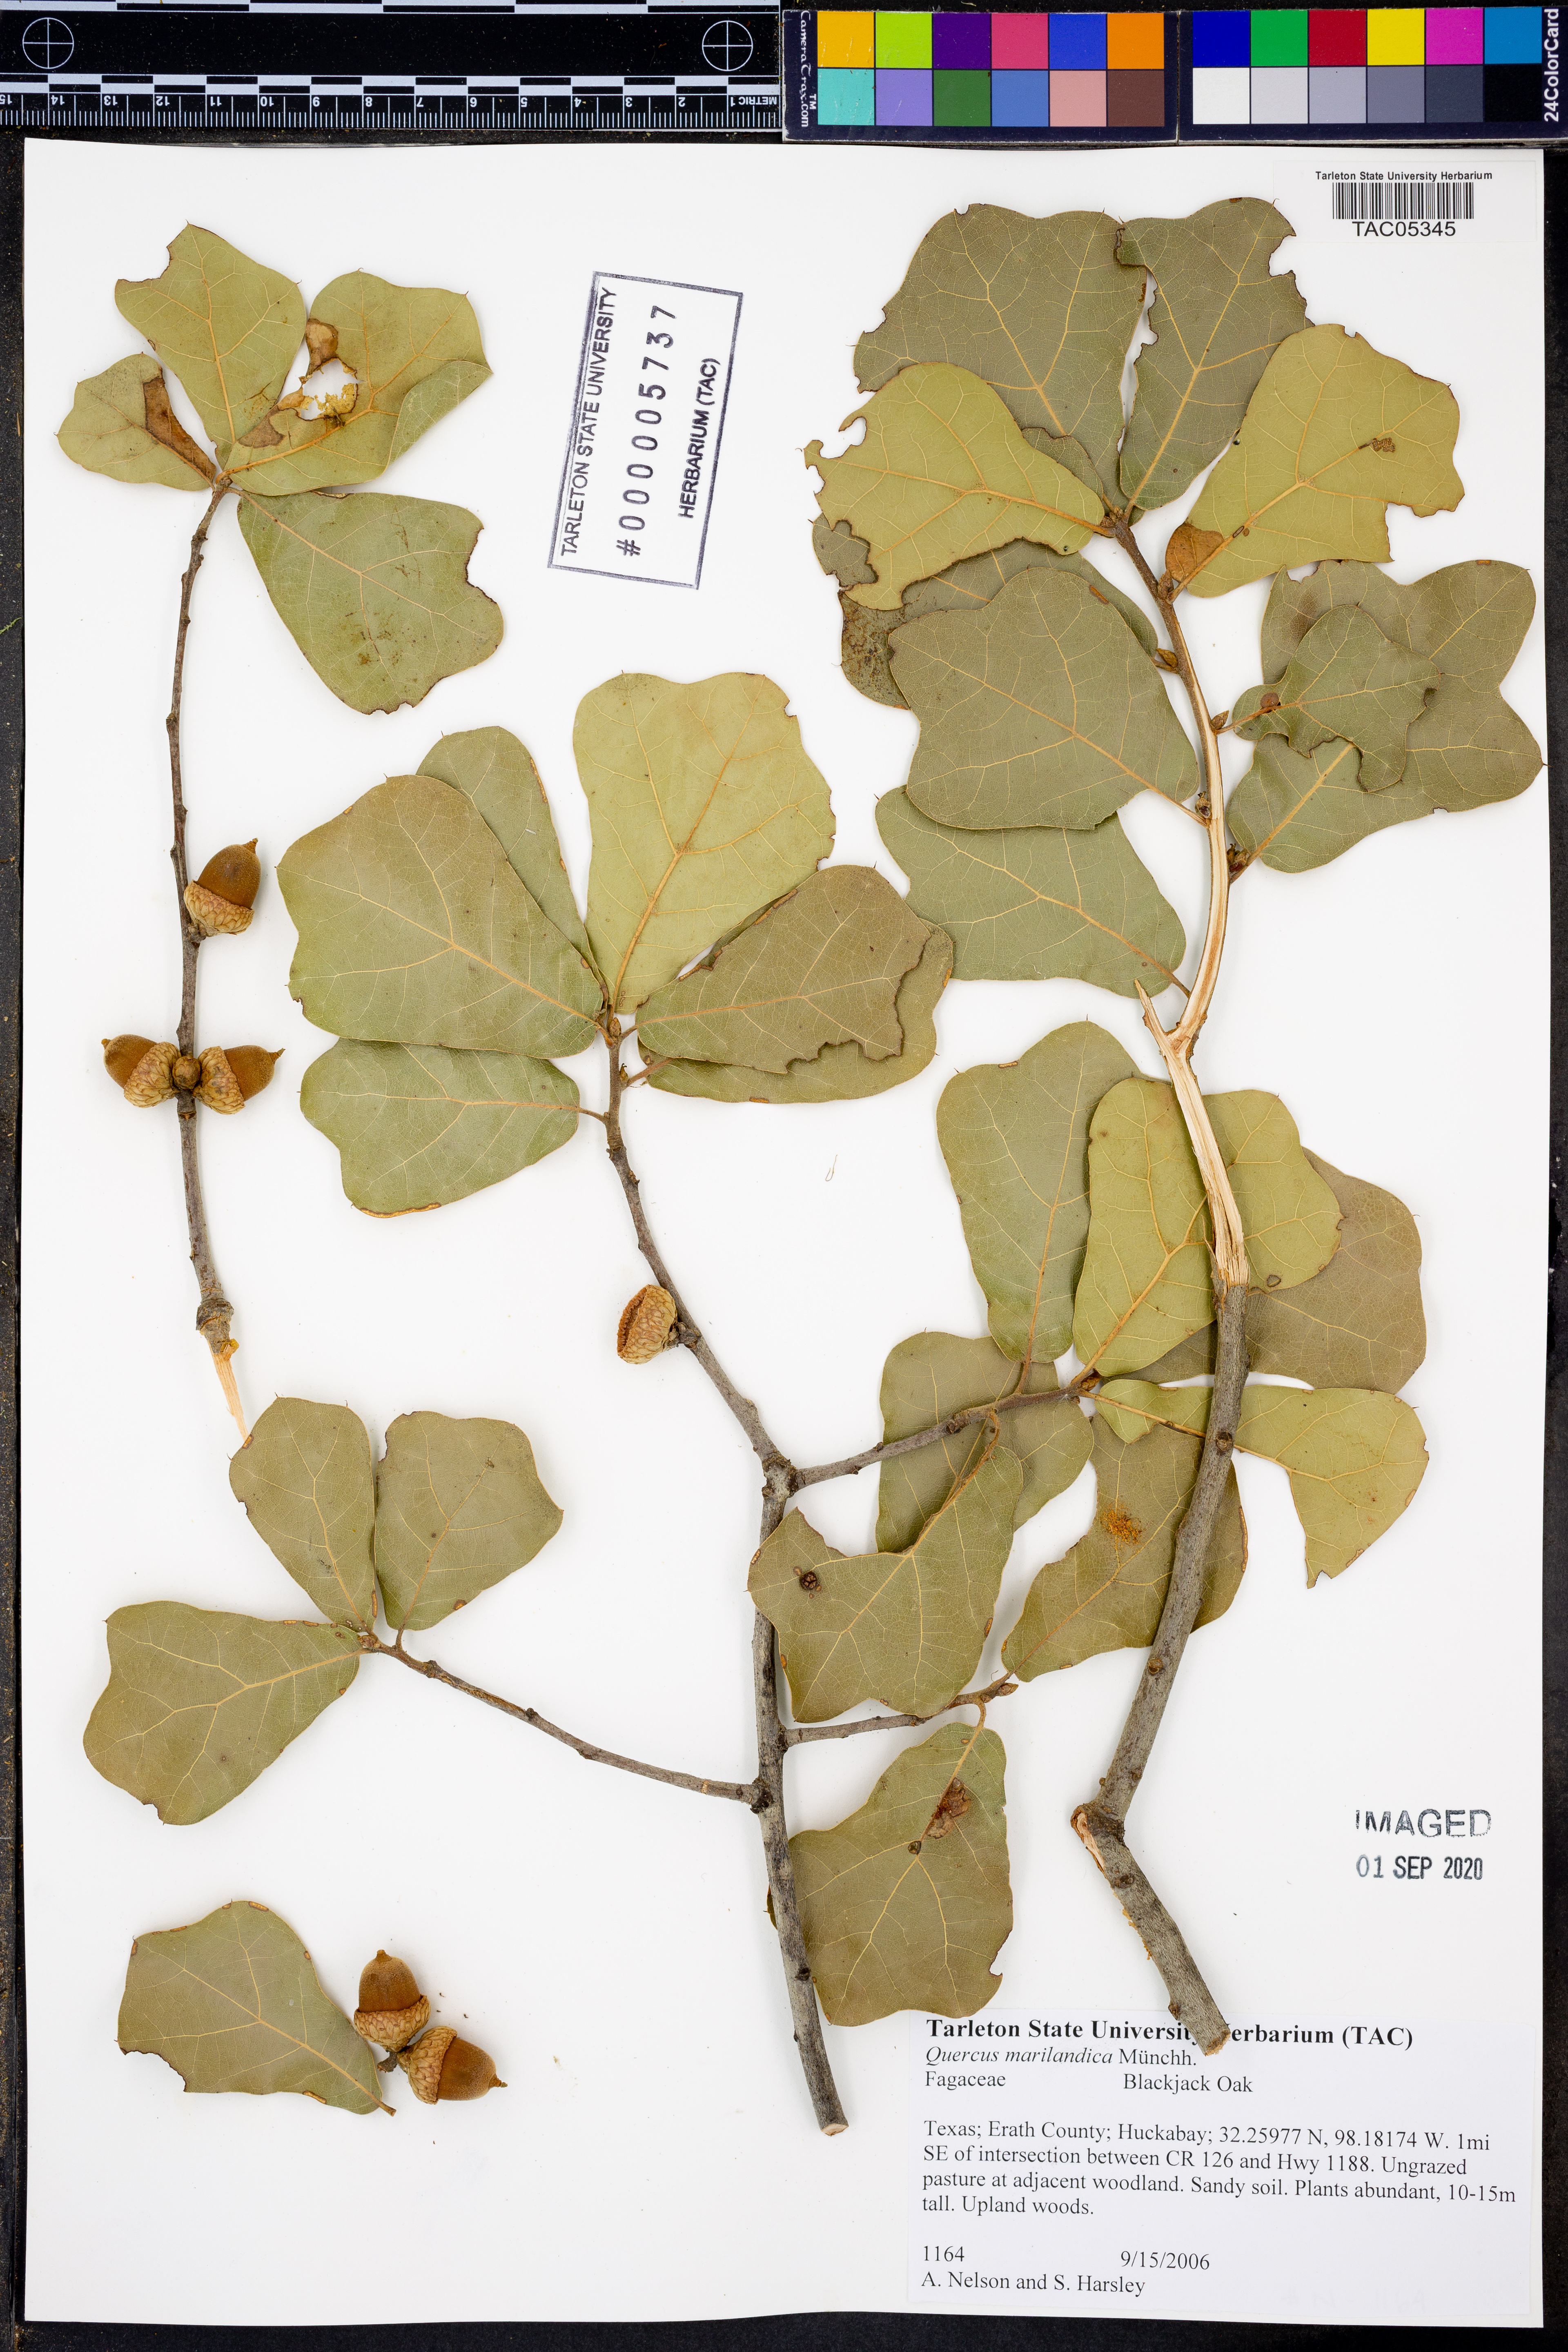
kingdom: Plantae
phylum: Tracheophyta
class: Magnoliopsida
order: Fagales
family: Fagaceae
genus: Quercus
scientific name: Quercus marilandica
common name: Blackjack oak
